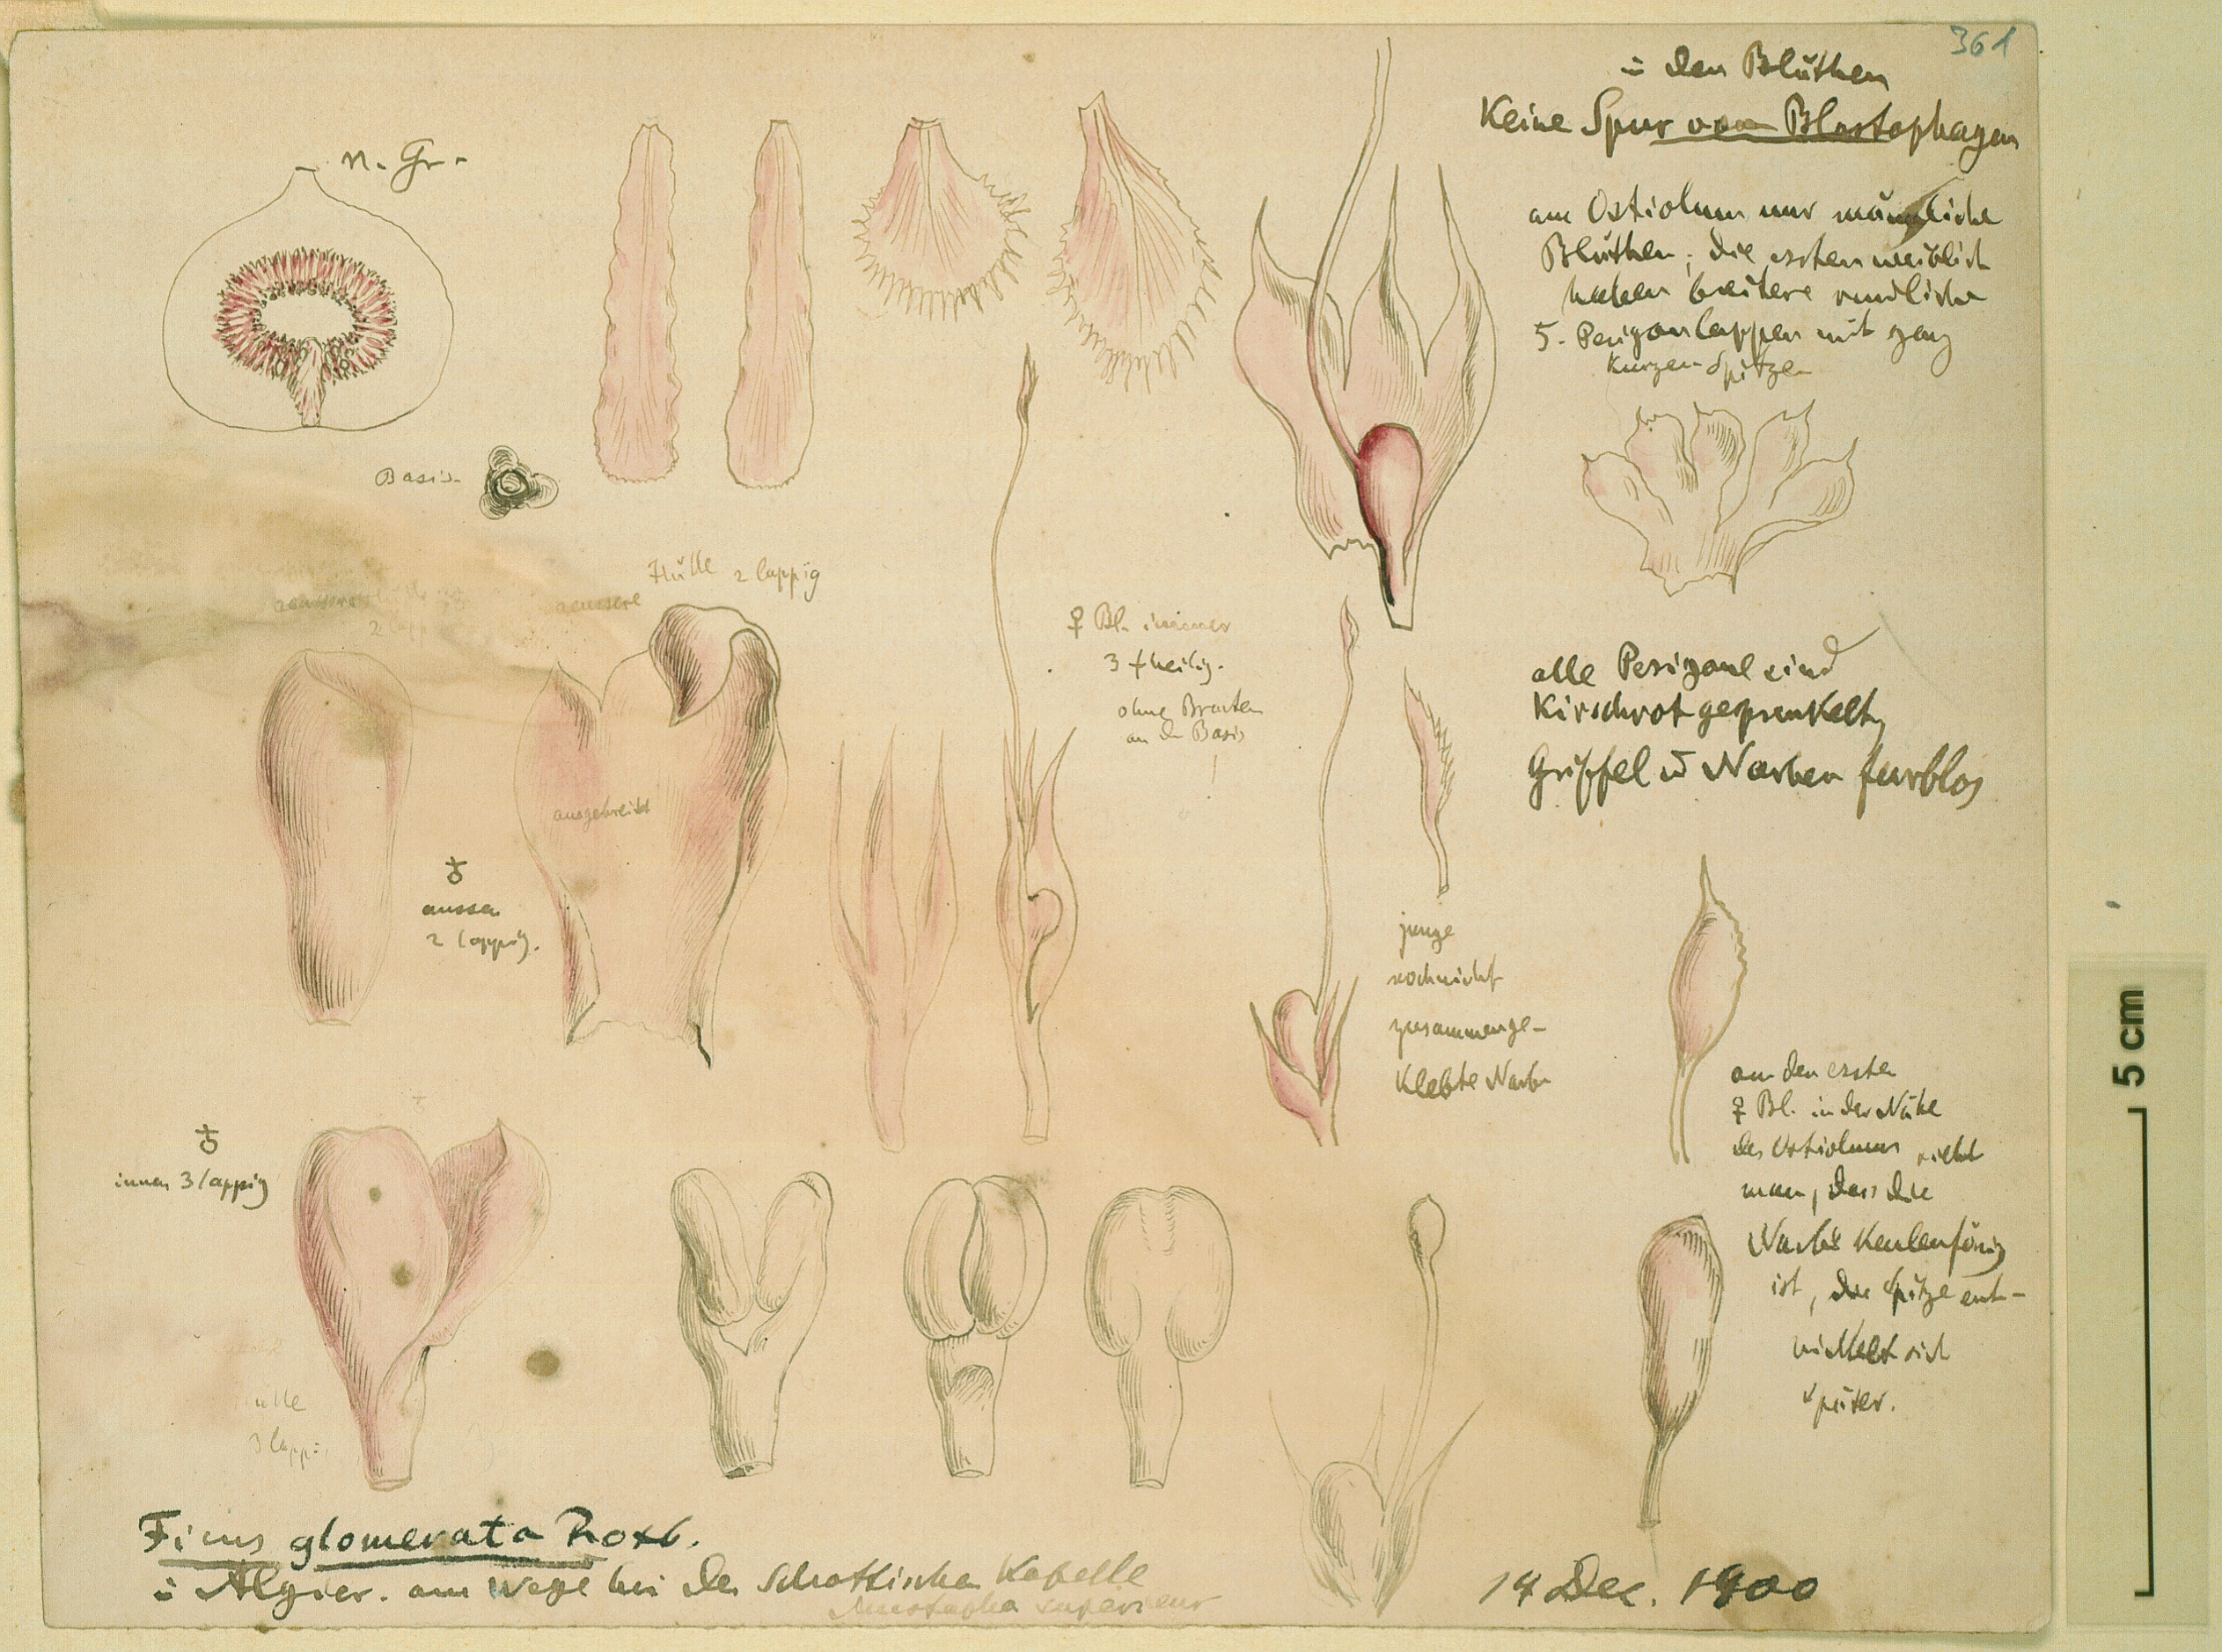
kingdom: Plantae
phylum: Tracheophyta
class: Magnoliopsida
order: Rosales
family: Moraceae
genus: Ficus
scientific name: Ficus racemosa
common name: Cluster fig
